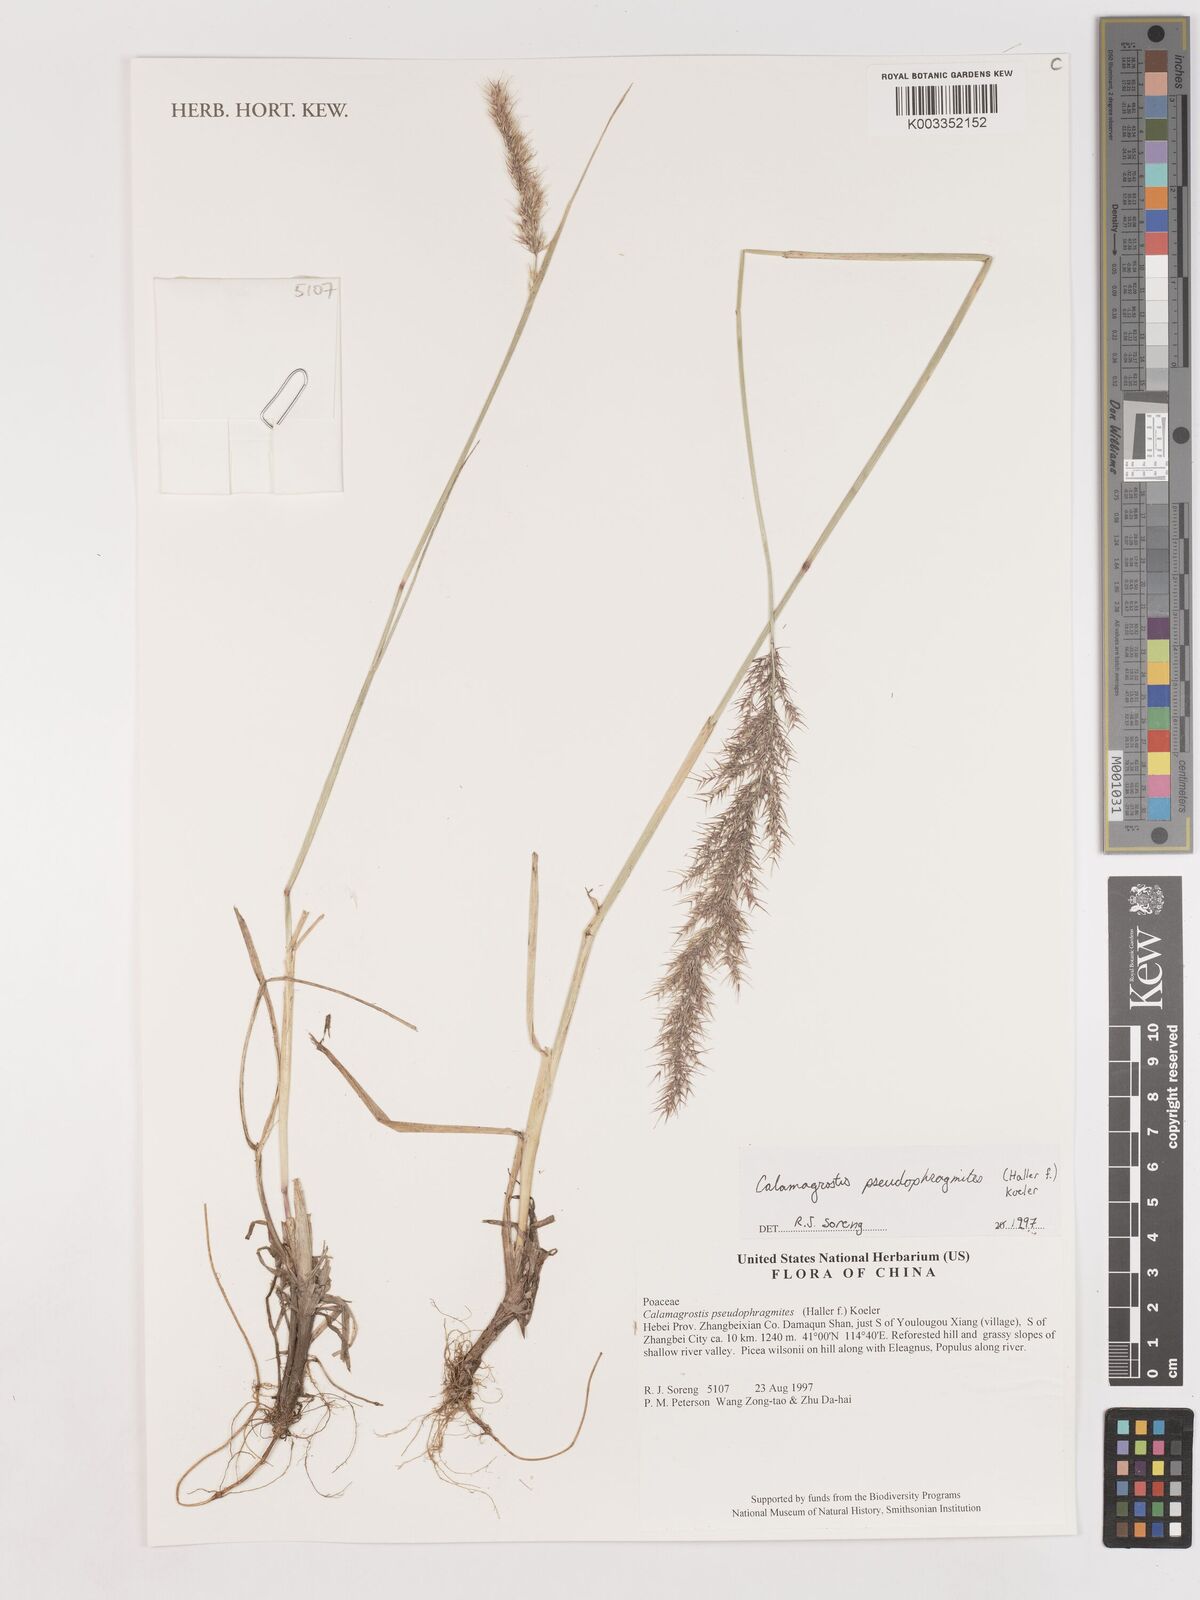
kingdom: Plantae
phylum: Tracheophyta
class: Liliopsida
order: Poales
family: Poaceae
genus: Calamagrostis
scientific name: Calamagrostis pseudophragmites
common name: Coastal small-reed
